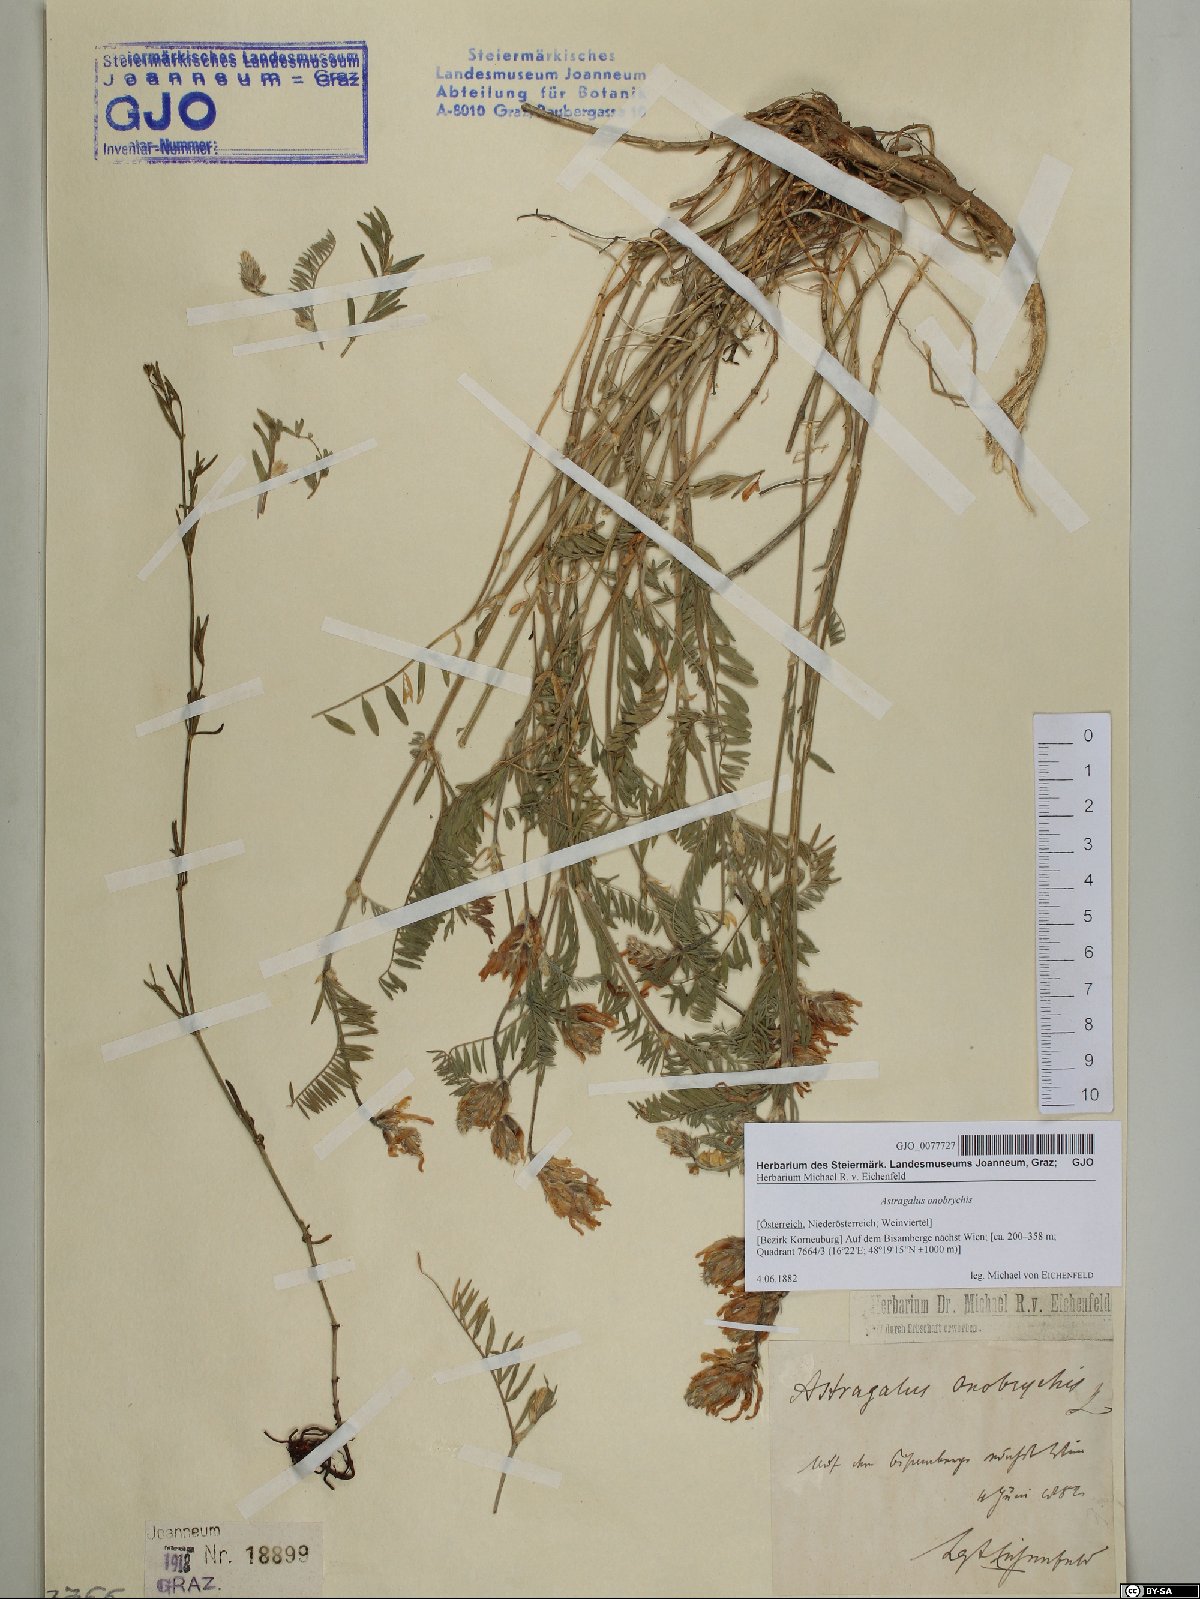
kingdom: Plantae
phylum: Tracheophyta
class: Magnoliopsida
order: Fabales
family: Fabaceae
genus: Astragalus
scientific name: Astragalus onobrychis
